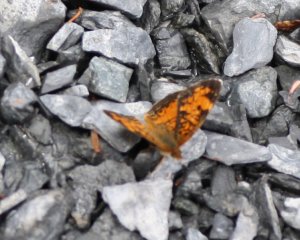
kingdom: Animalia
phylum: Arthropoda
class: Insecta
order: Lepidoptera
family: Nymphalidae
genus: Phyciodes
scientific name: Phyciodes tharos
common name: Northern Crescent
